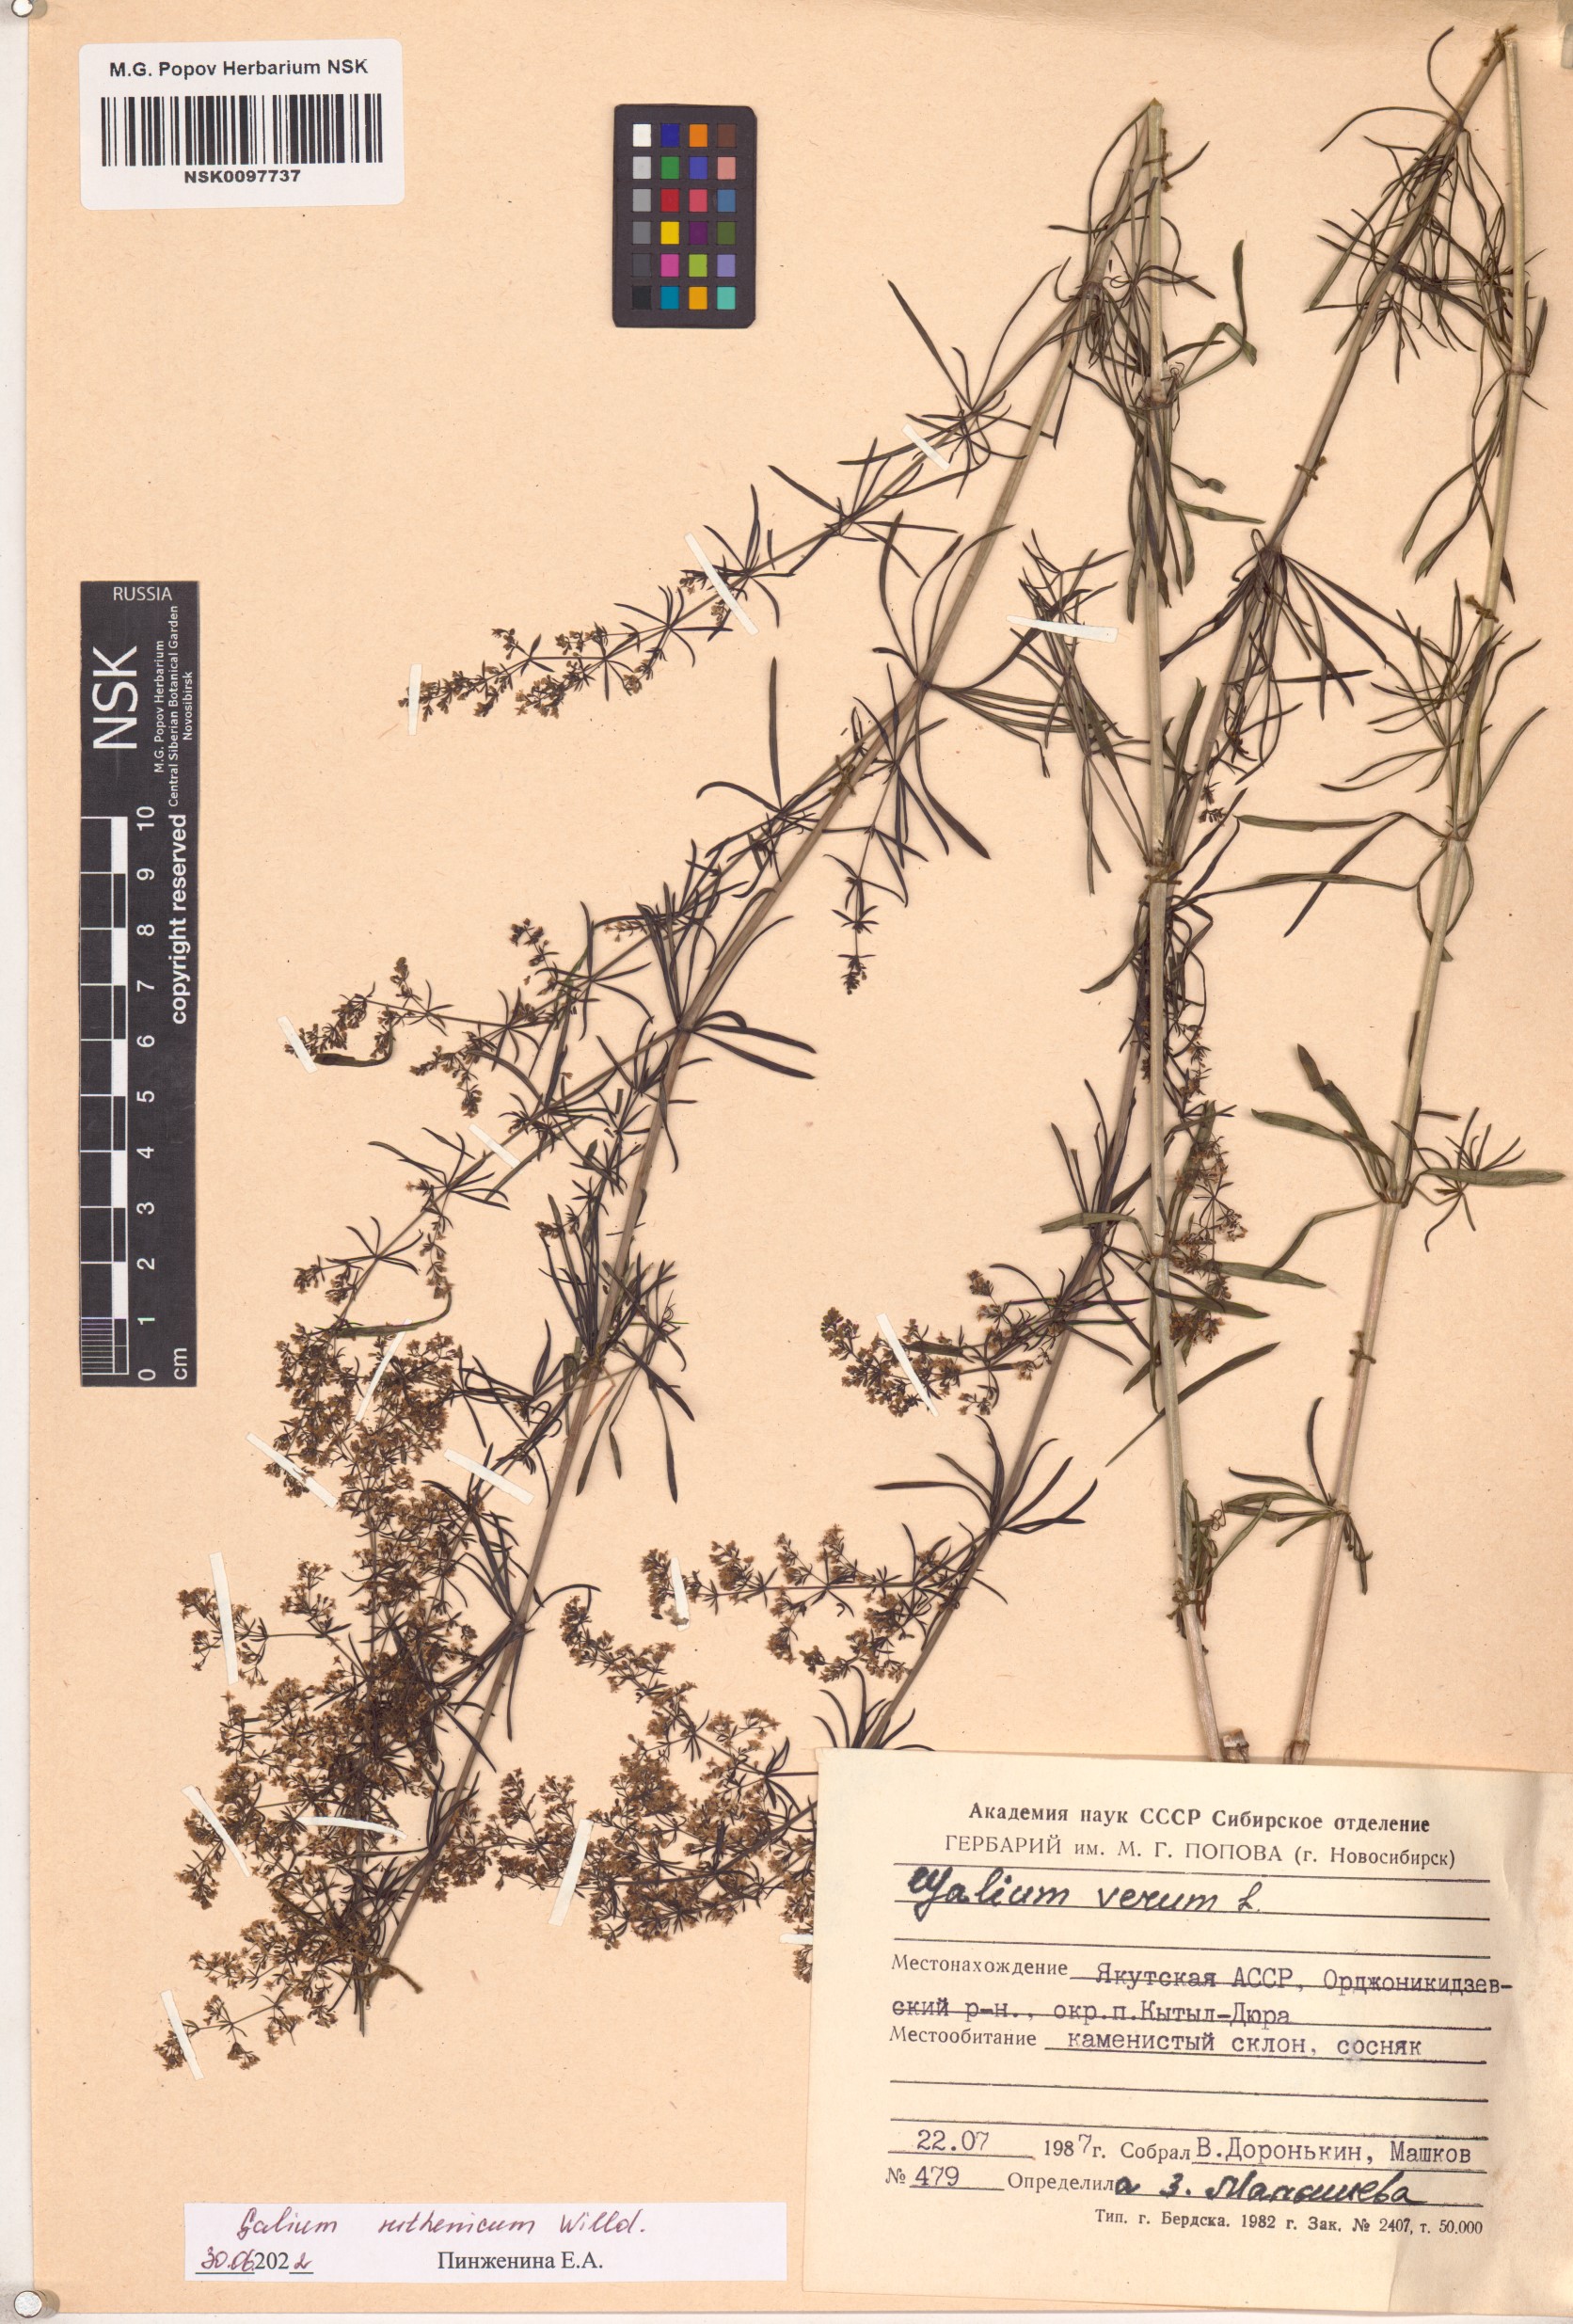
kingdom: Plantae
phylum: Tracheophyta
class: Magnoliopsida
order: Gentianales
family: Rubiaceae
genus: Galium
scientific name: Galium verum
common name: Lady's bedstraw
